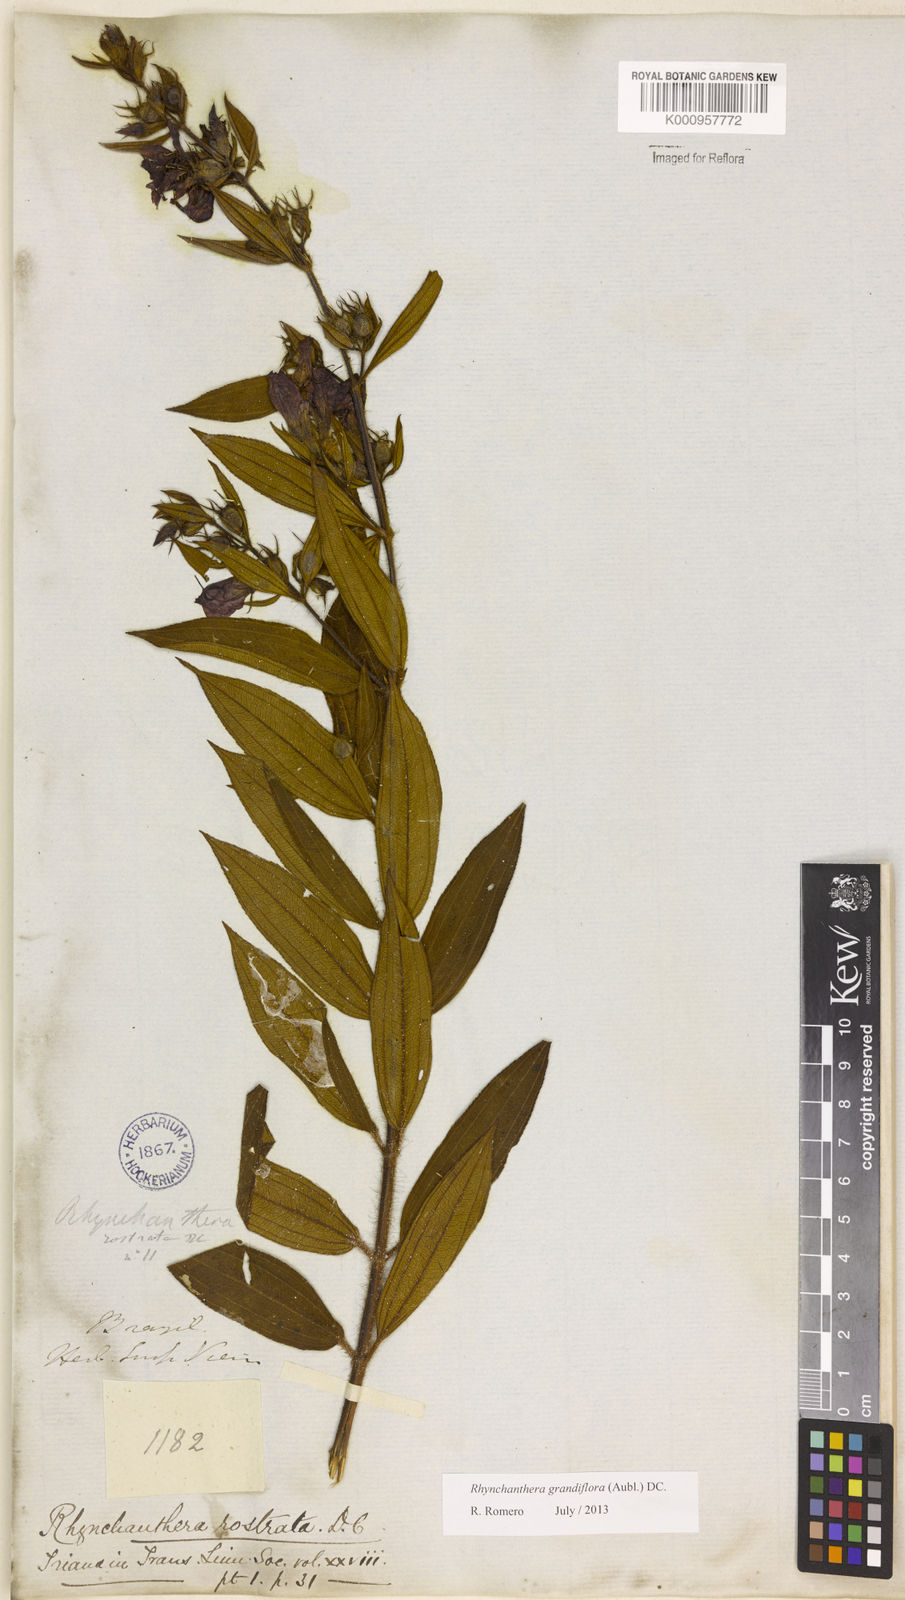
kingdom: Plantae
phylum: Tracheophyta
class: Magnoliopsida
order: Myrtales
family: Melastomataceae
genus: Rhynchanthera
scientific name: Rhynchanthera grandiflora
